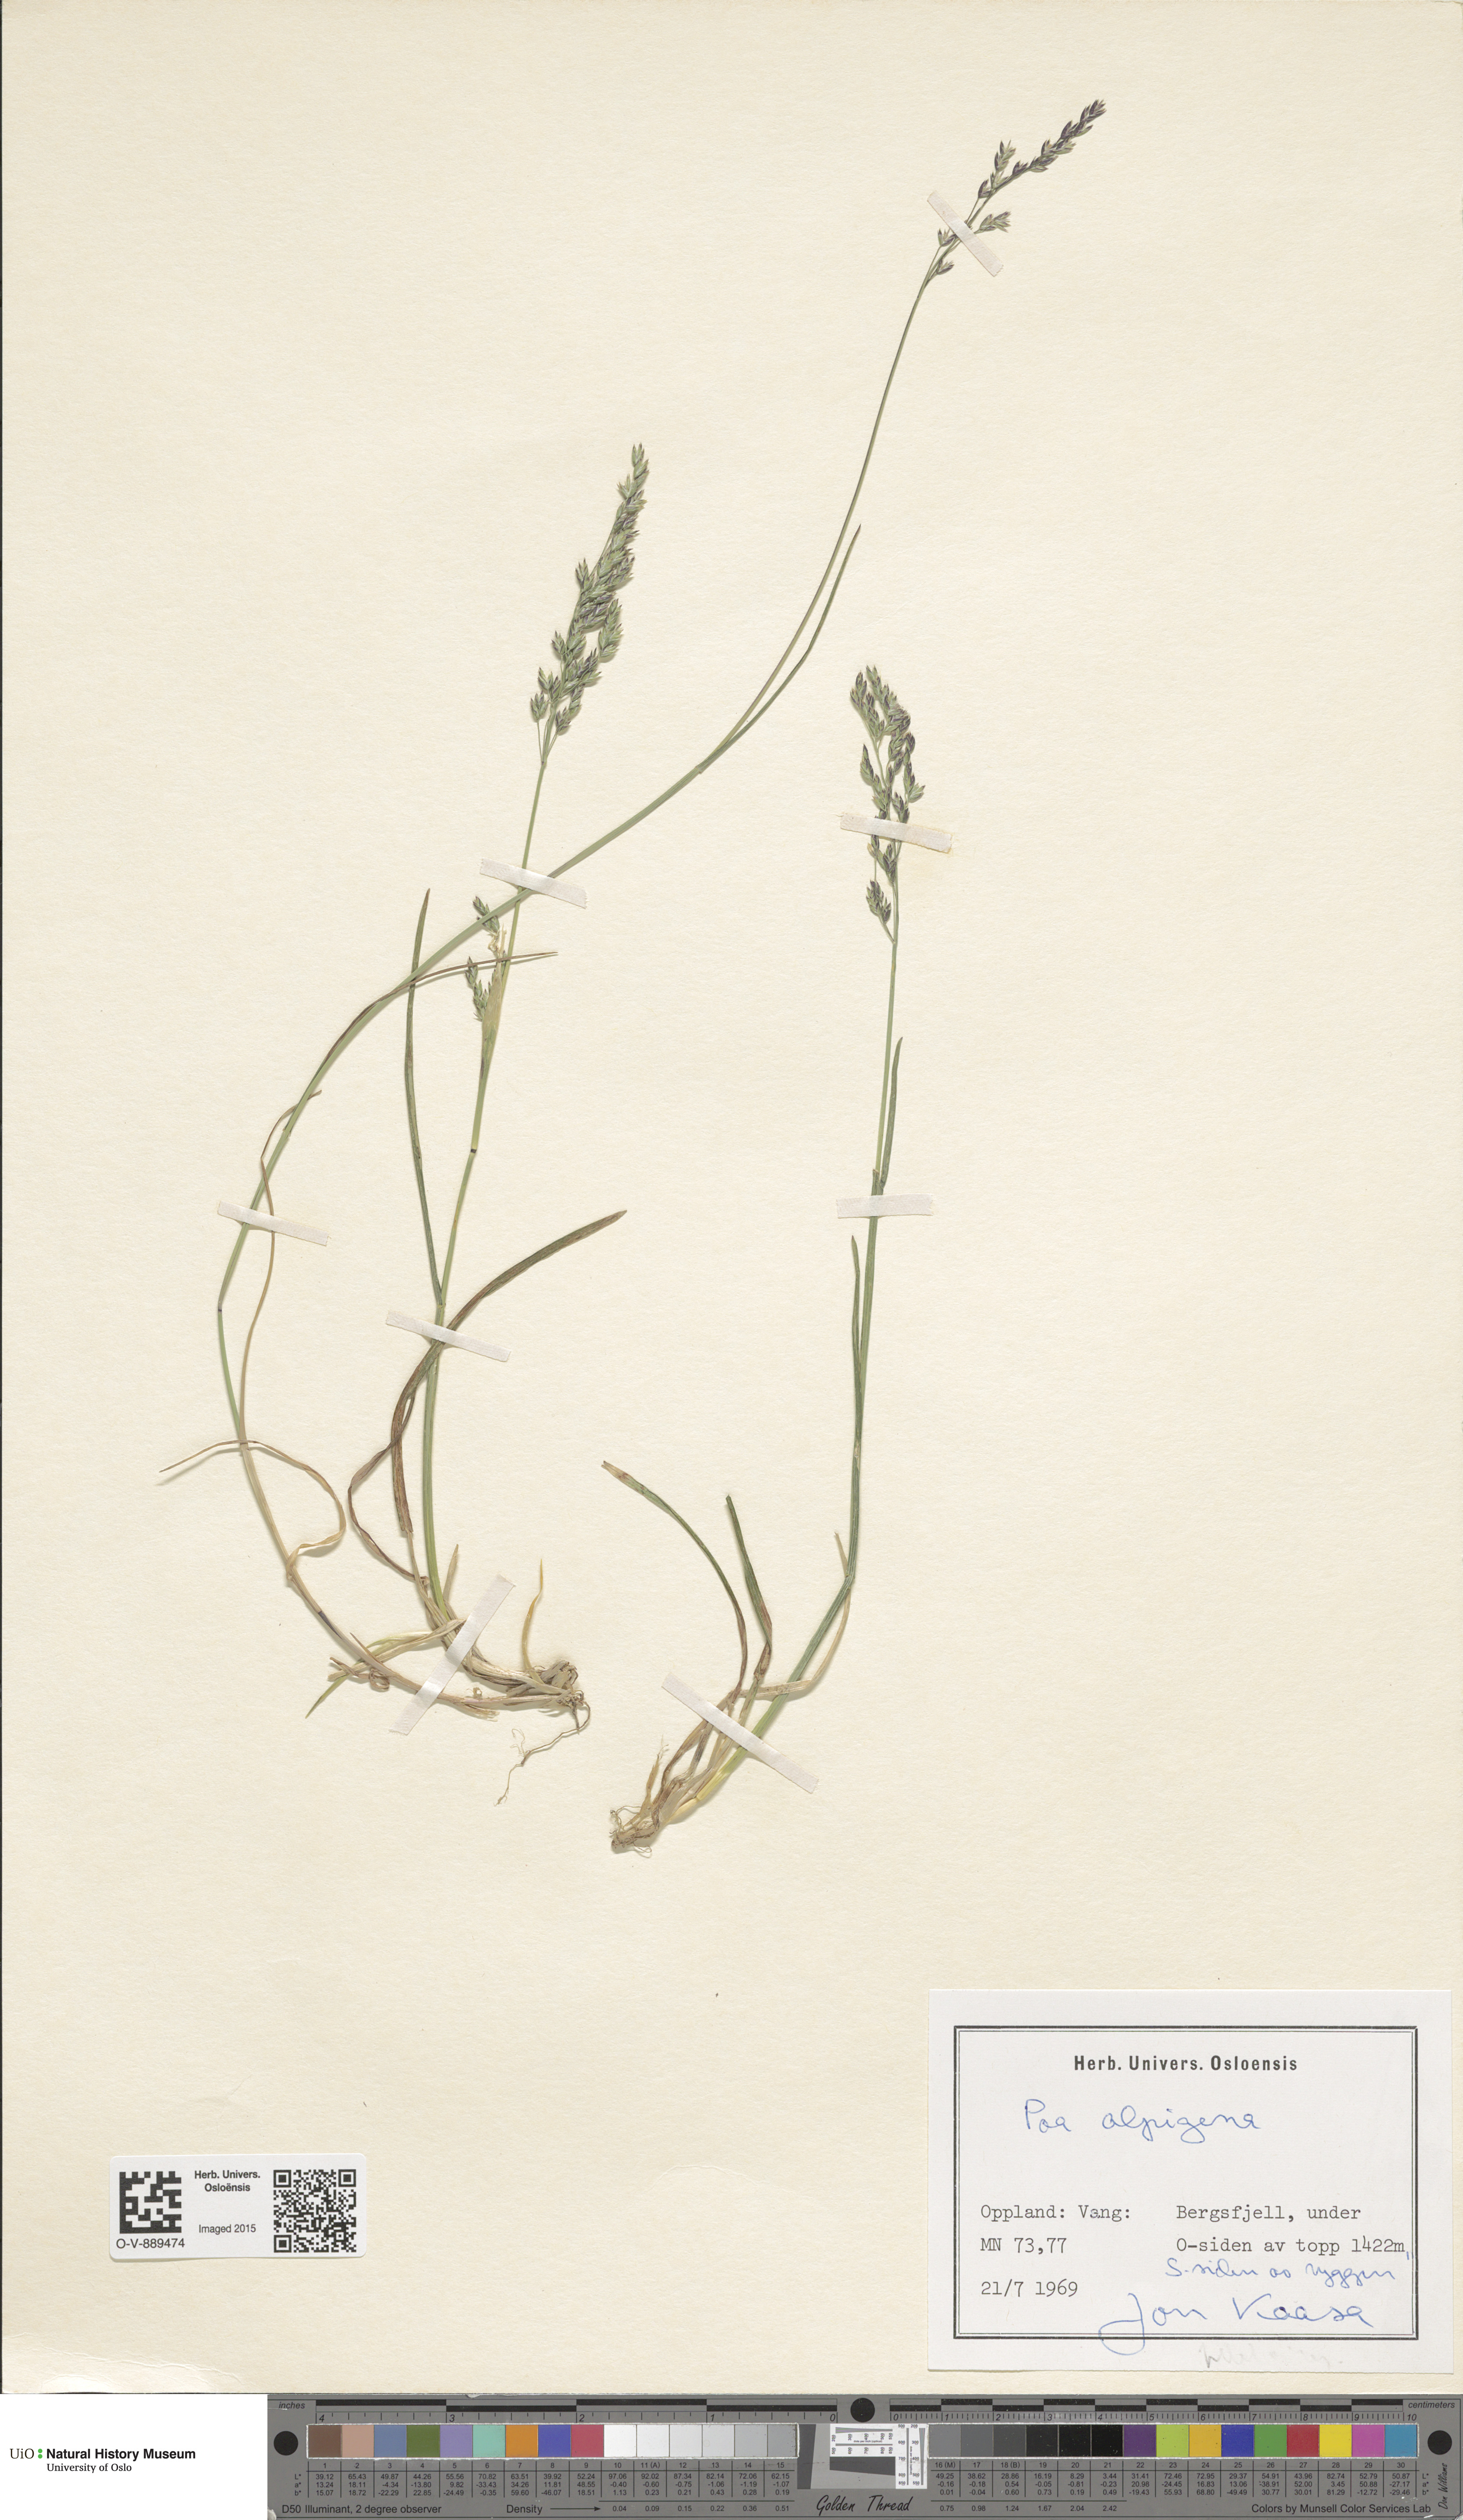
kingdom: Plantae
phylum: Tracheophyta
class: Liliopsida
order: Poales
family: Poaceae
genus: Poa
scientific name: Poa alpigena
